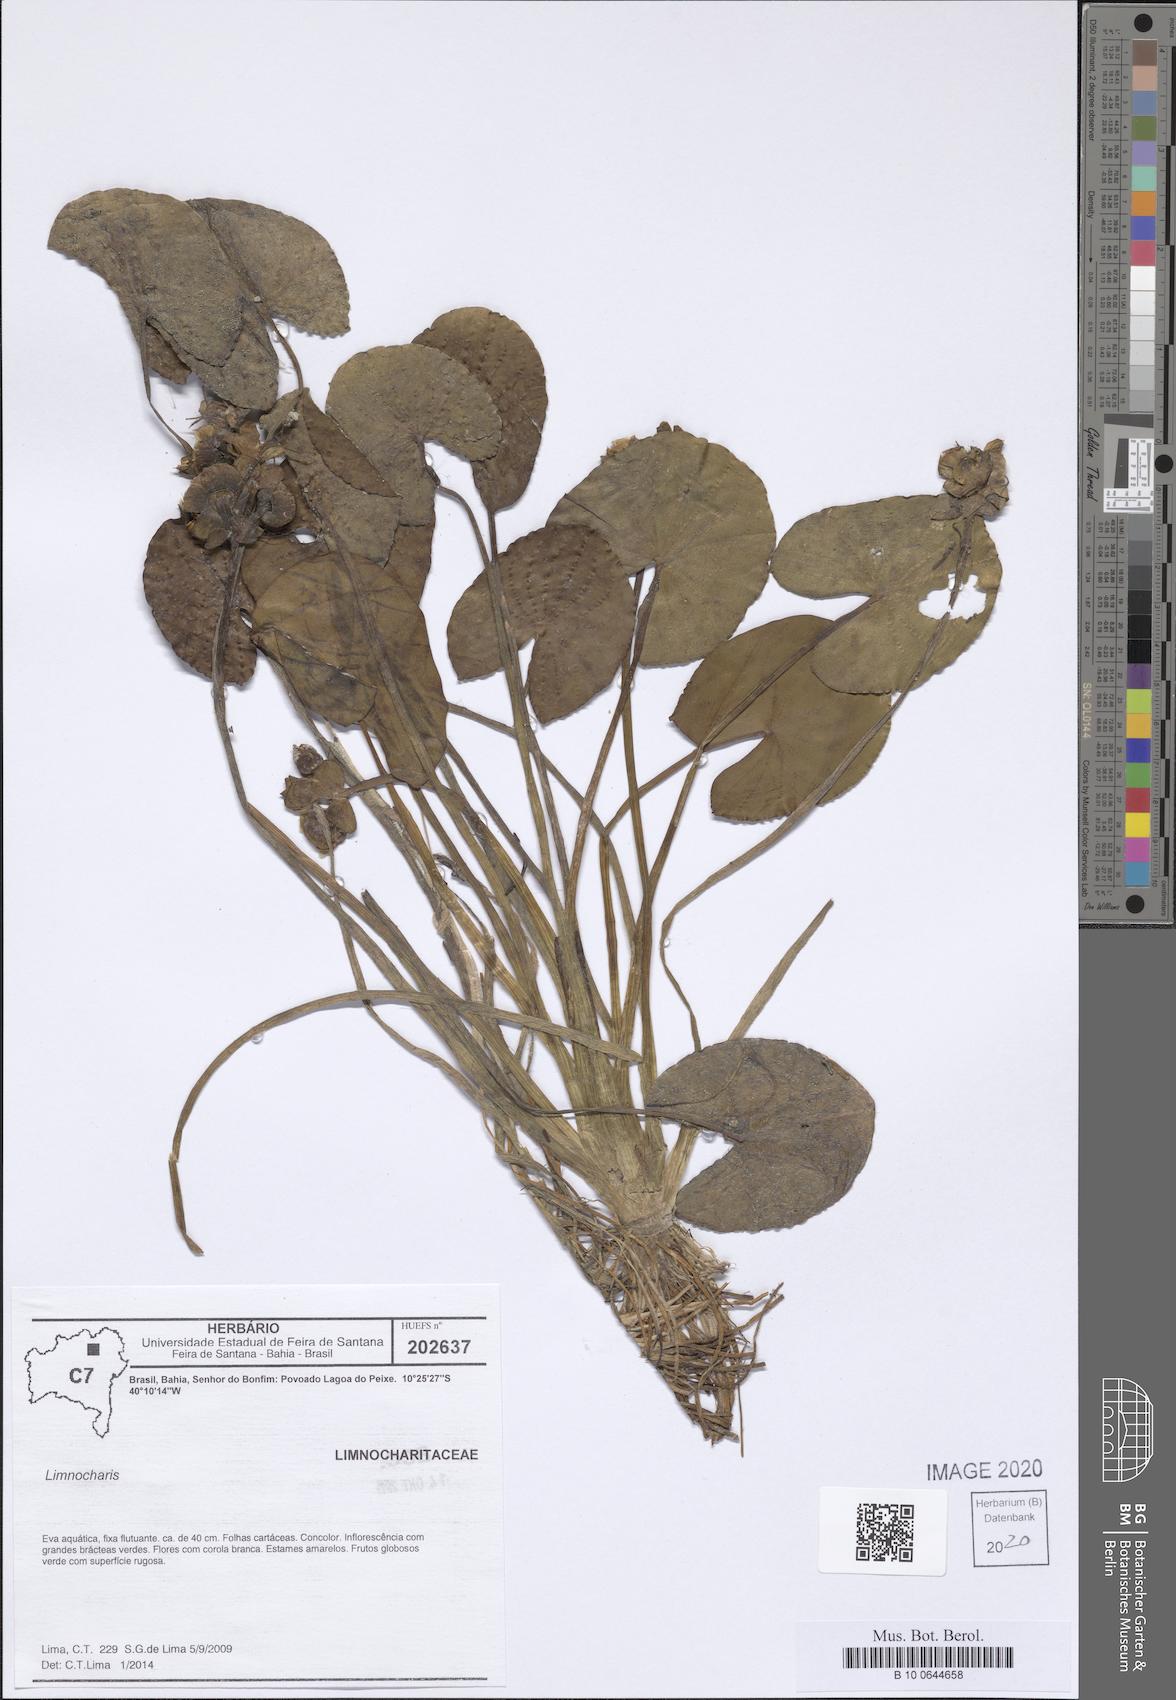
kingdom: Plantae
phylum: Tracheophyta
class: Liliopsida
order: Alismatales
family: Alismataceae
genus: Limnocharis
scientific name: Limnocharis
